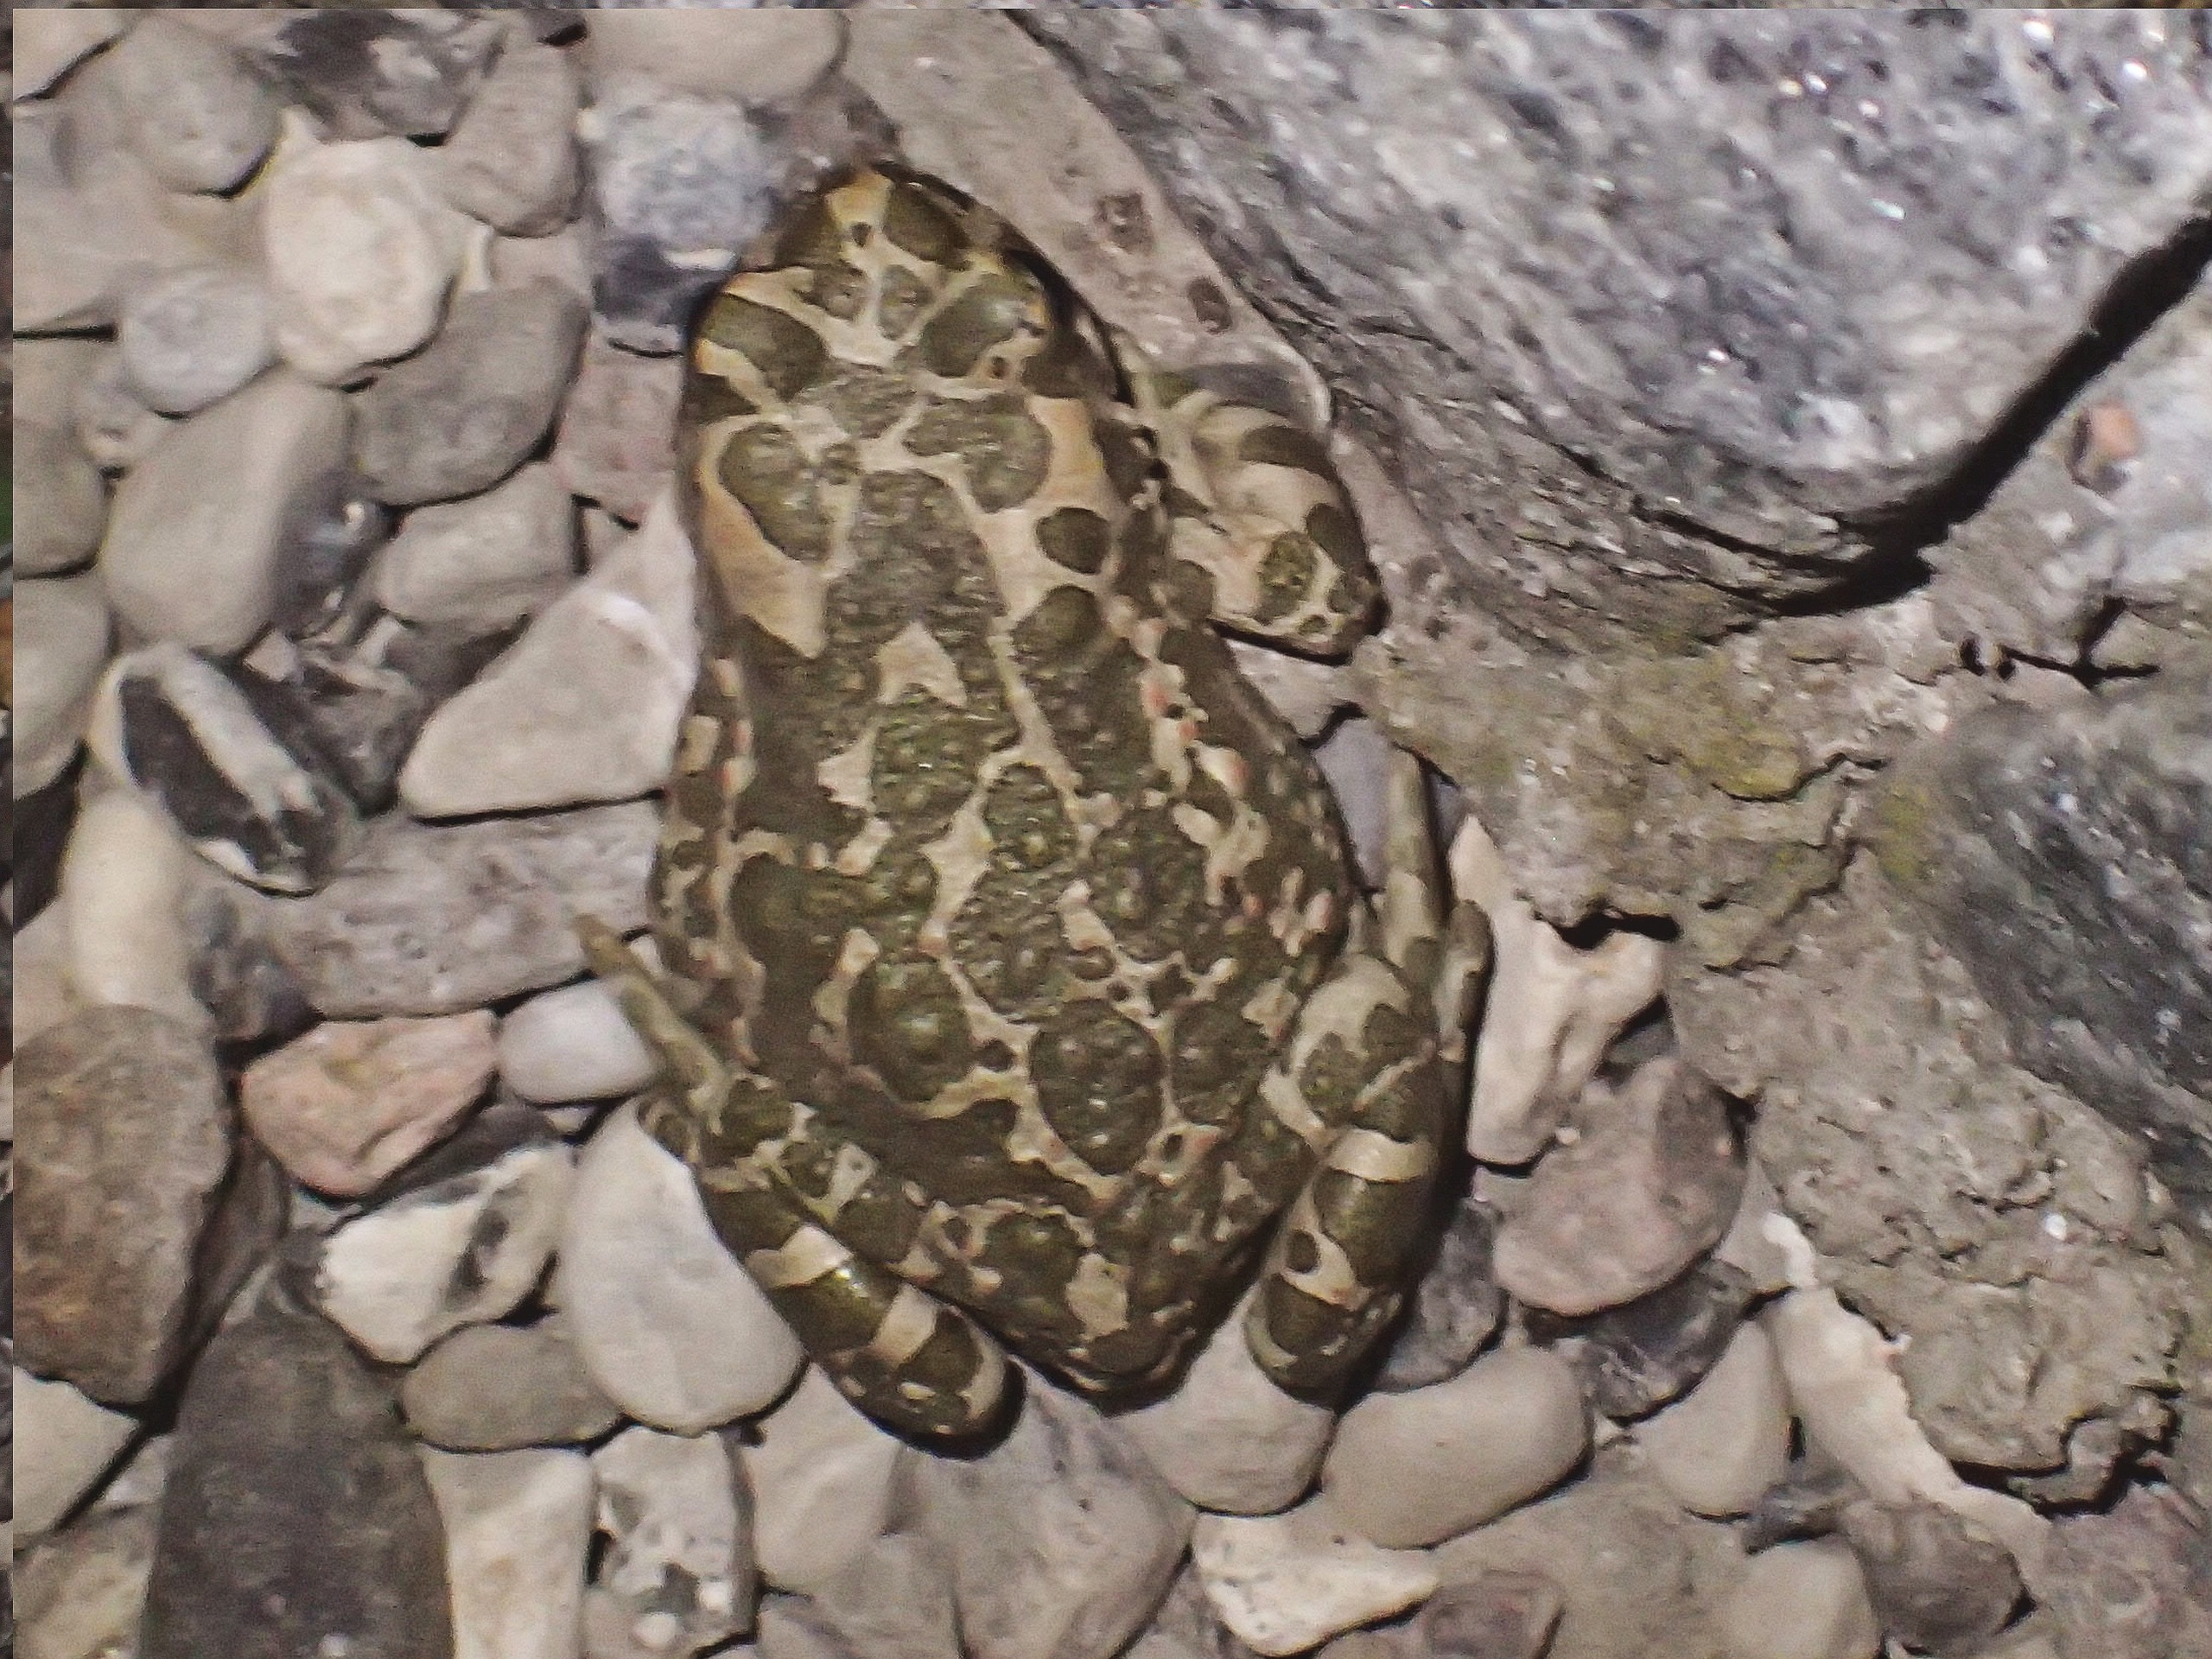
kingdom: Animalia
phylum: Chordata
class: Amphibia
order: Anura
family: Bufonidae
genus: Bufotes
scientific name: Bufotes viridis
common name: Grønbroget tudse
